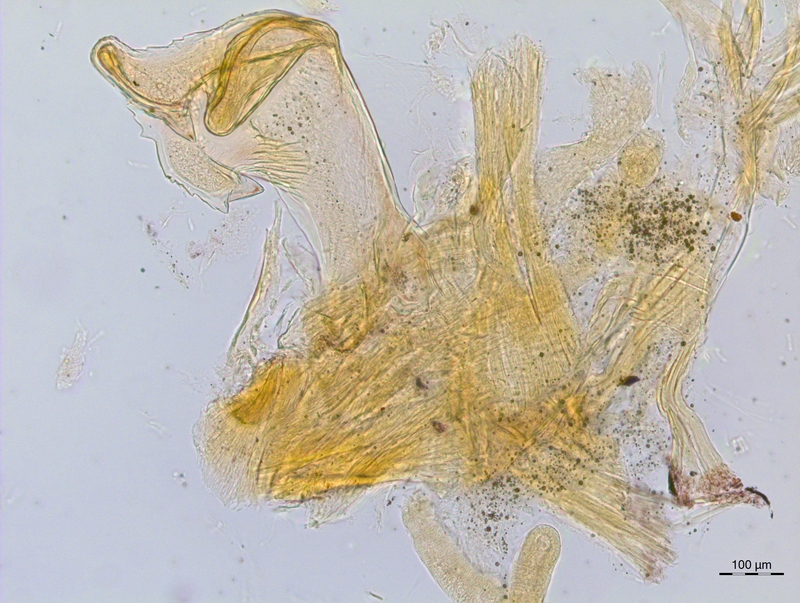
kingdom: Animalia
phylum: Arthropoda
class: Diplopoda
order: Chordeumatida
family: Craspedosomatidae
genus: Craspedosoma
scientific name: Craspedosoma rawlinsii
